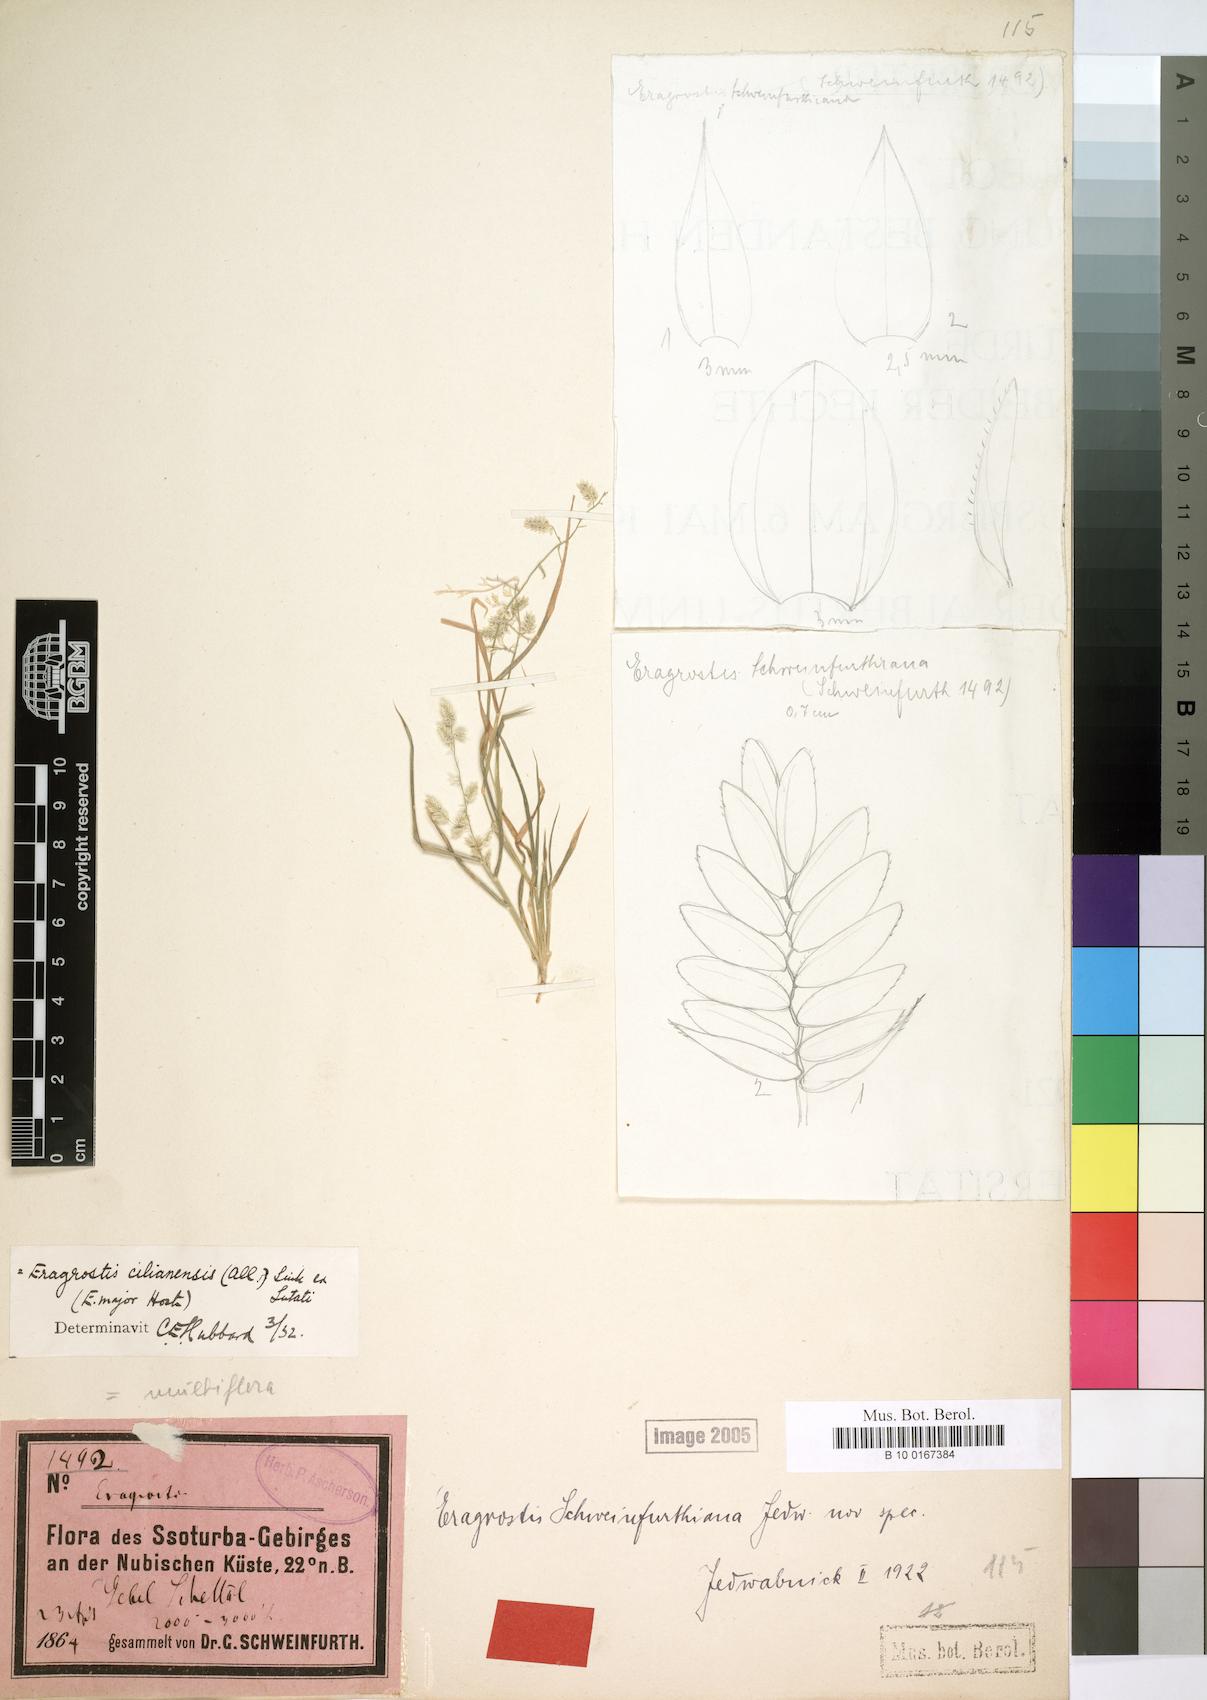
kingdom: Plantae
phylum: Tracheophyta
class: Liliopsida
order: Poales
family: Poaceae
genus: Eragrostis
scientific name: Eragrostis cilianensis
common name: Stinkgrass
